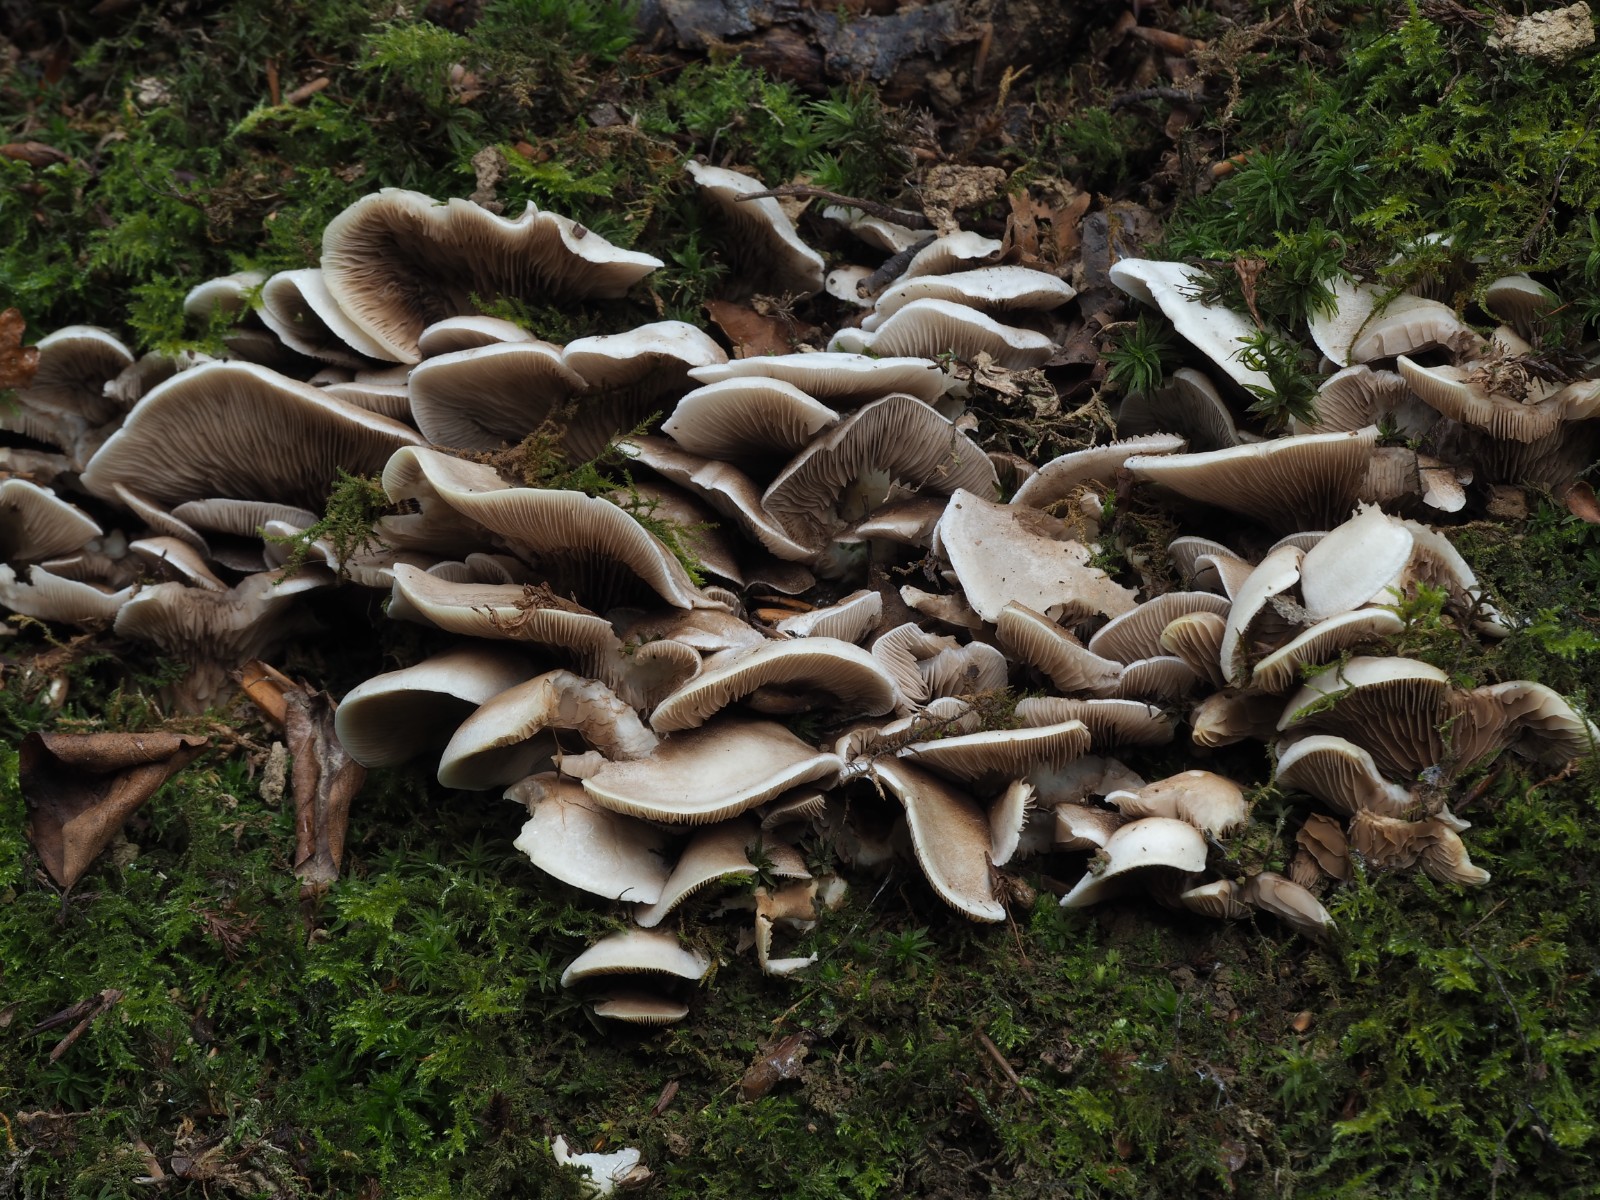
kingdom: Fungi
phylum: Basidiomycota
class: Agaricomycetes
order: Agaricales
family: Crepidotaceae
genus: Crepidotus
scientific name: Crepidotus autochthonus
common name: skæv muslingesvamp
